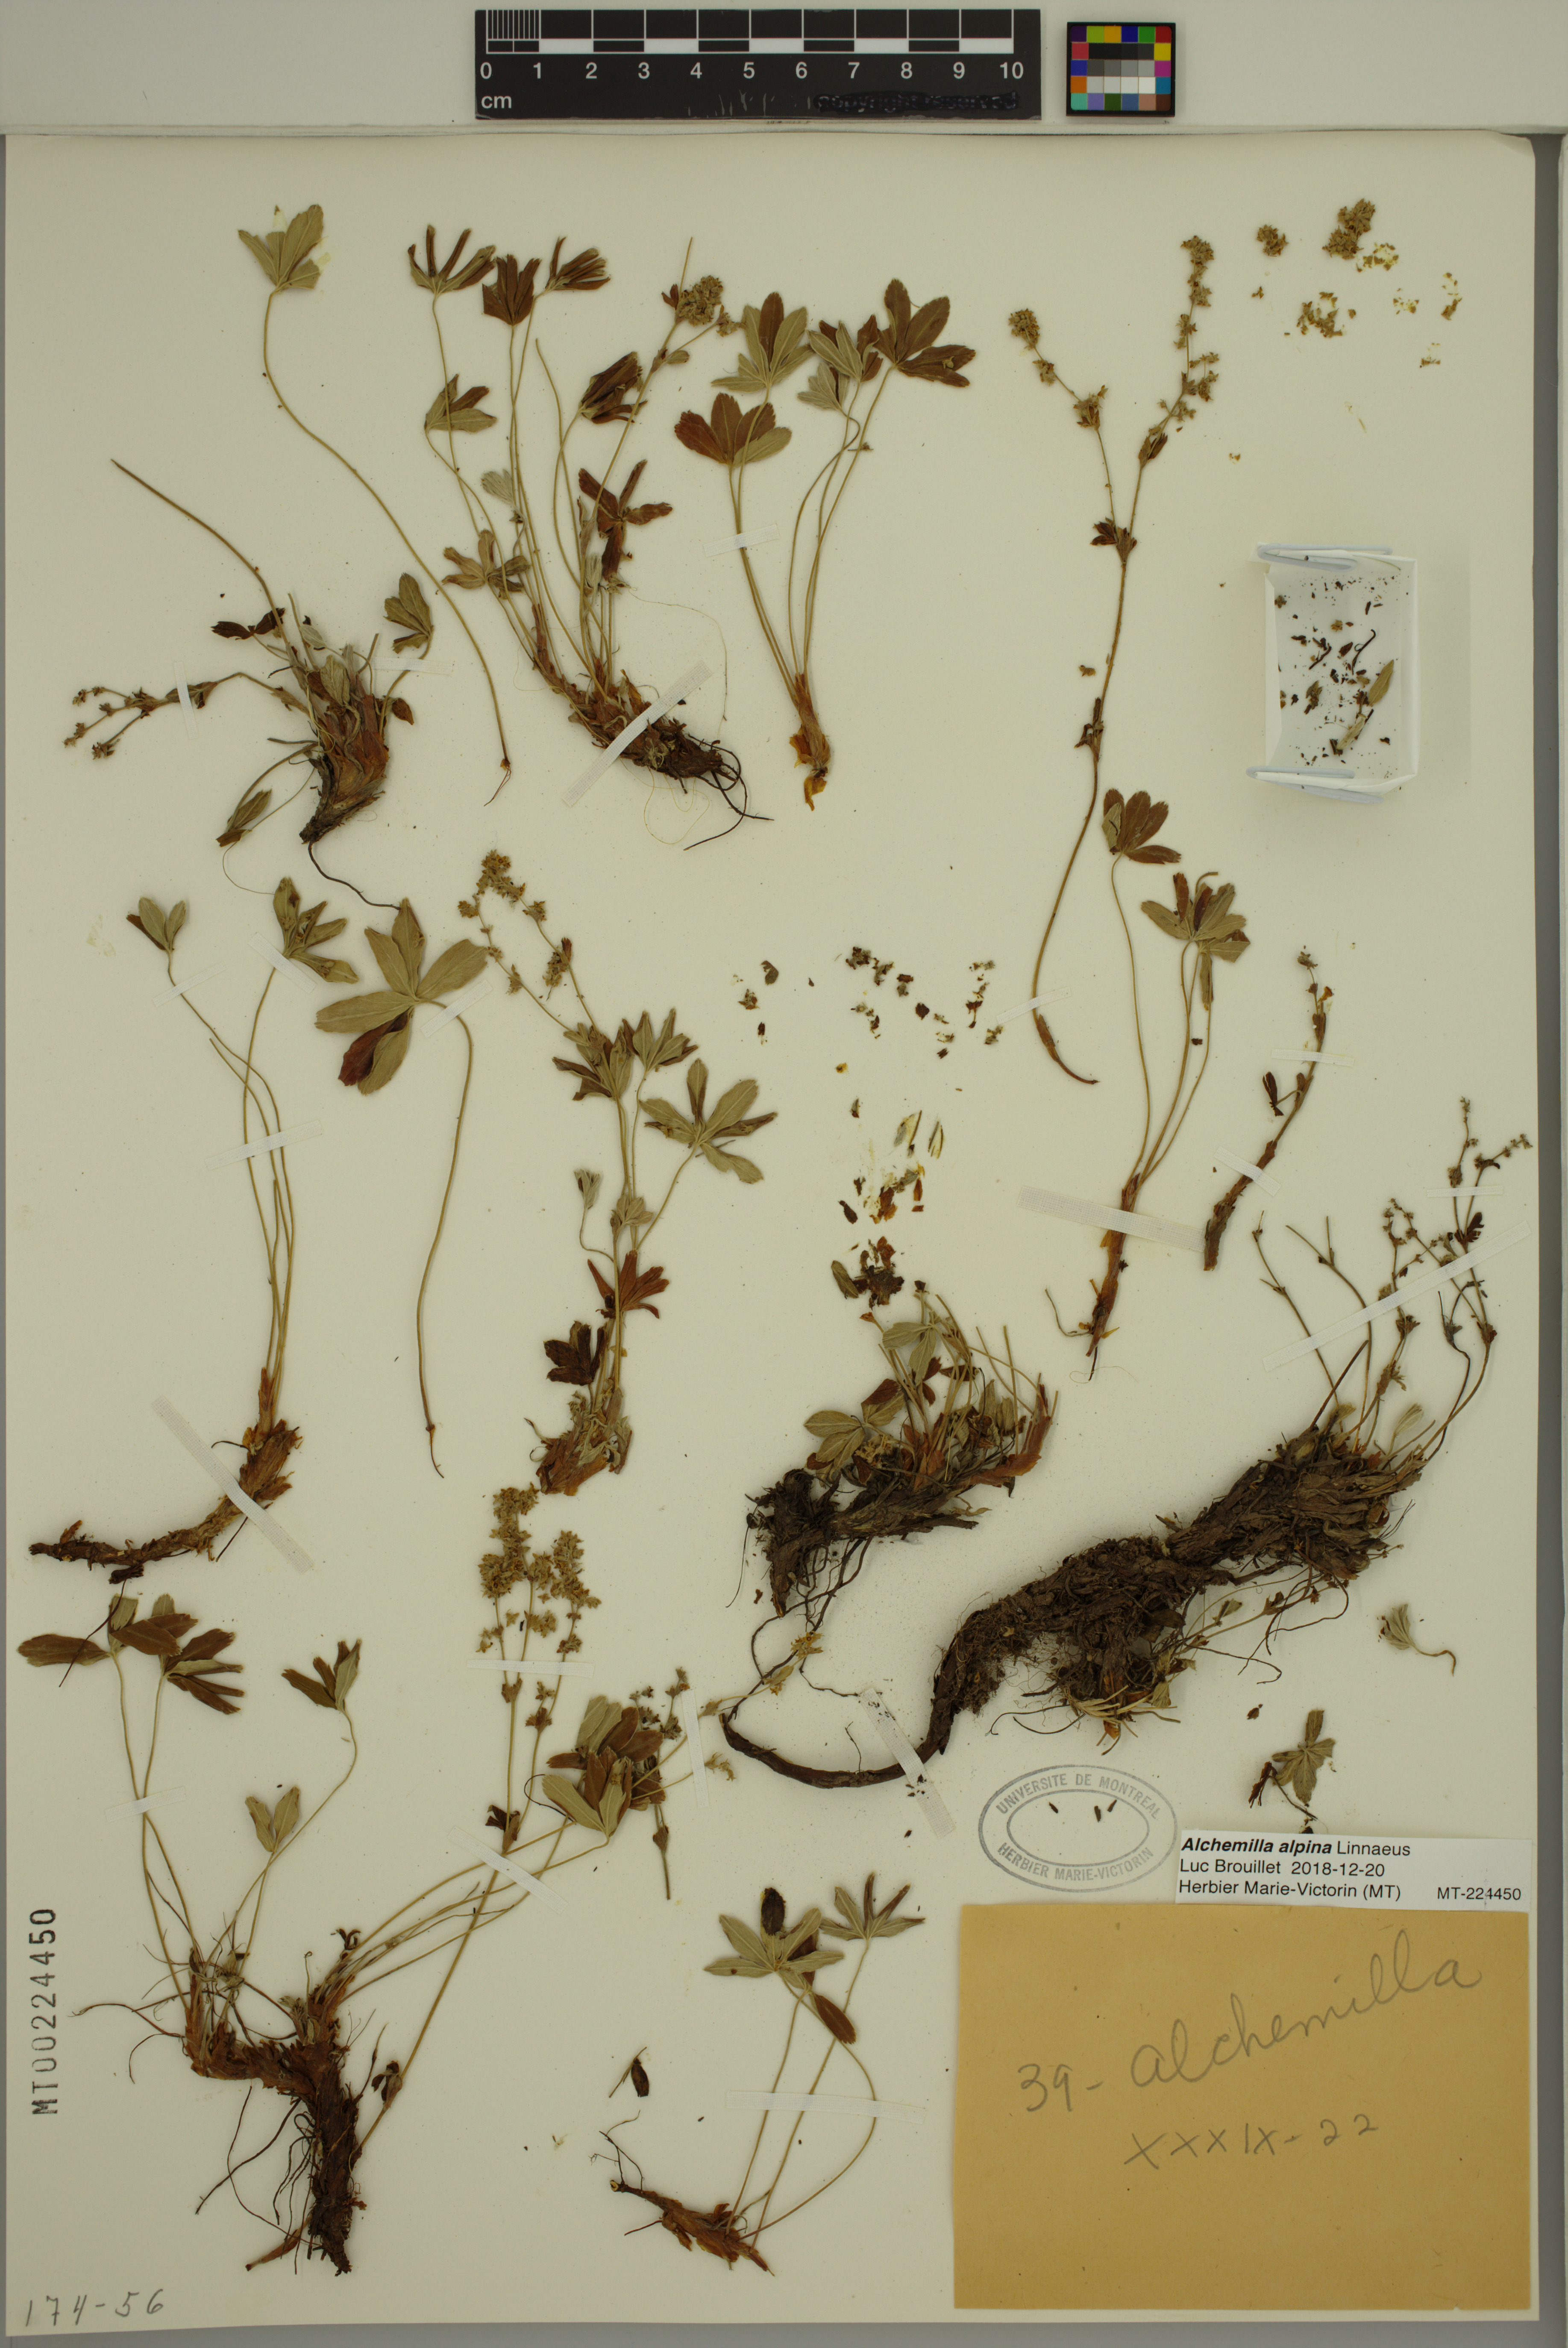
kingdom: Plantae
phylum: Tracheophyta
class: Magnoliopsida
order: Rosales
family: Rosaceae
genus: Alchemilla
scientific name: Alchemilla alpina
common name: Alpine lady's-mantle
